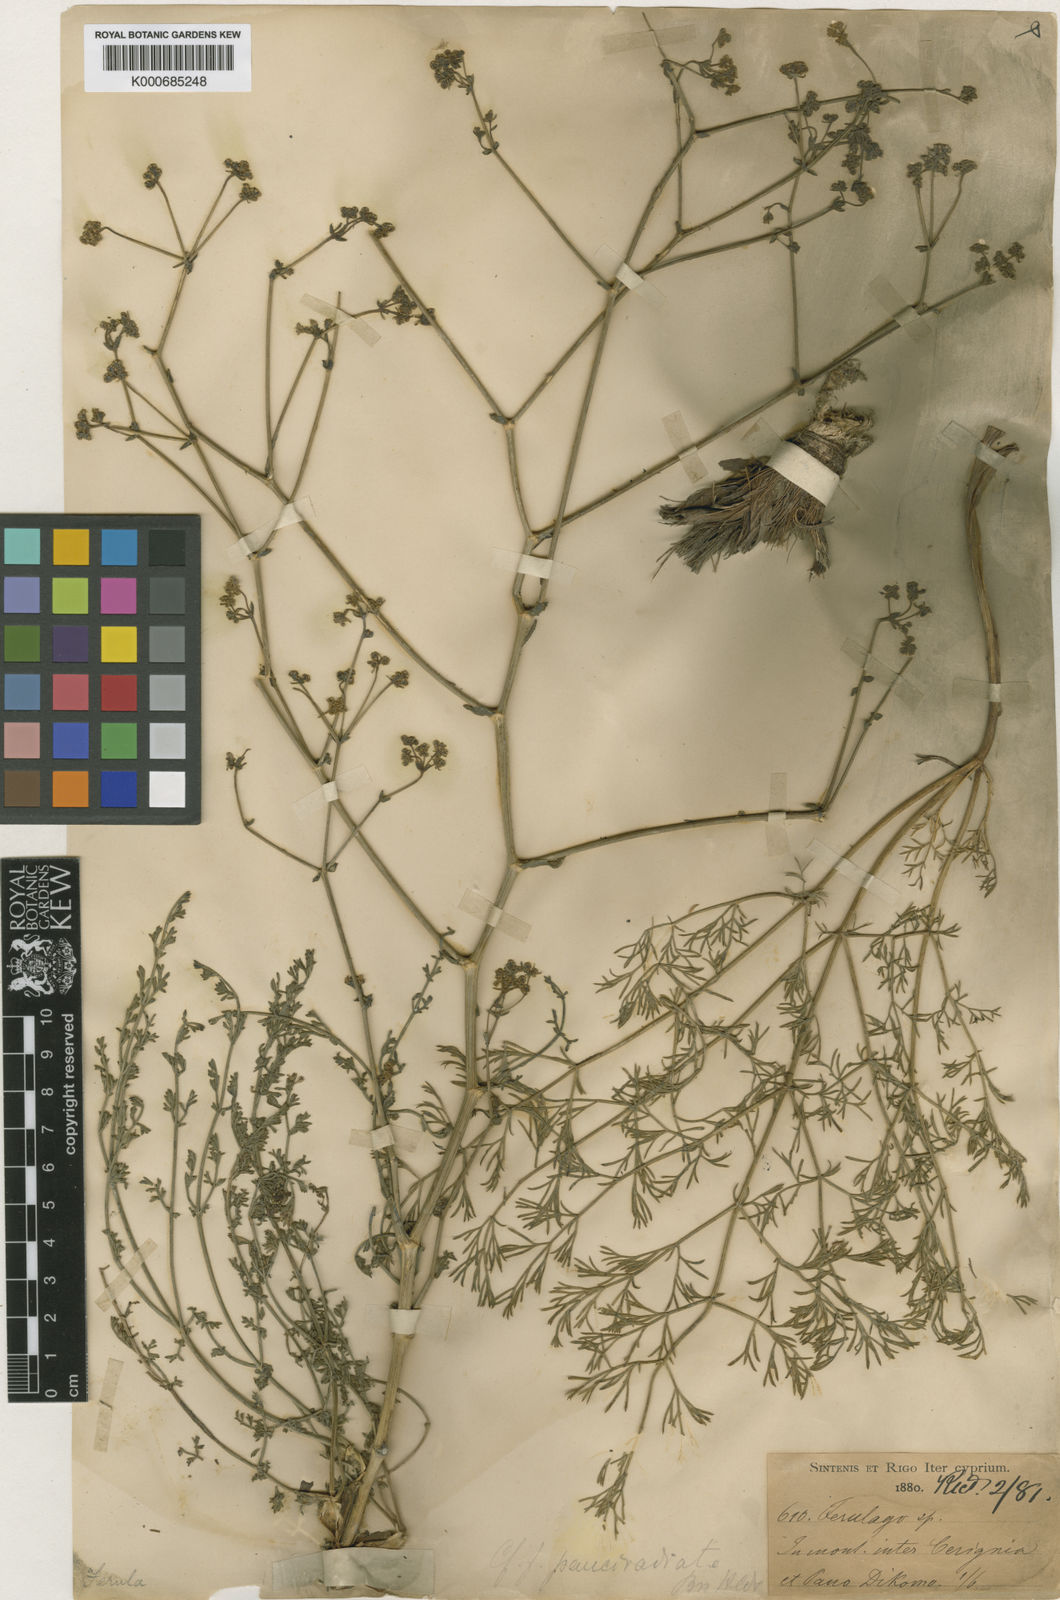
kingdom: Plantae
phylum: Tracheophyta
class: Magnoliopsida
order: Apiales
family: Apiaceae
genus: Ferulago
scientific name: Ferulago syriaca
